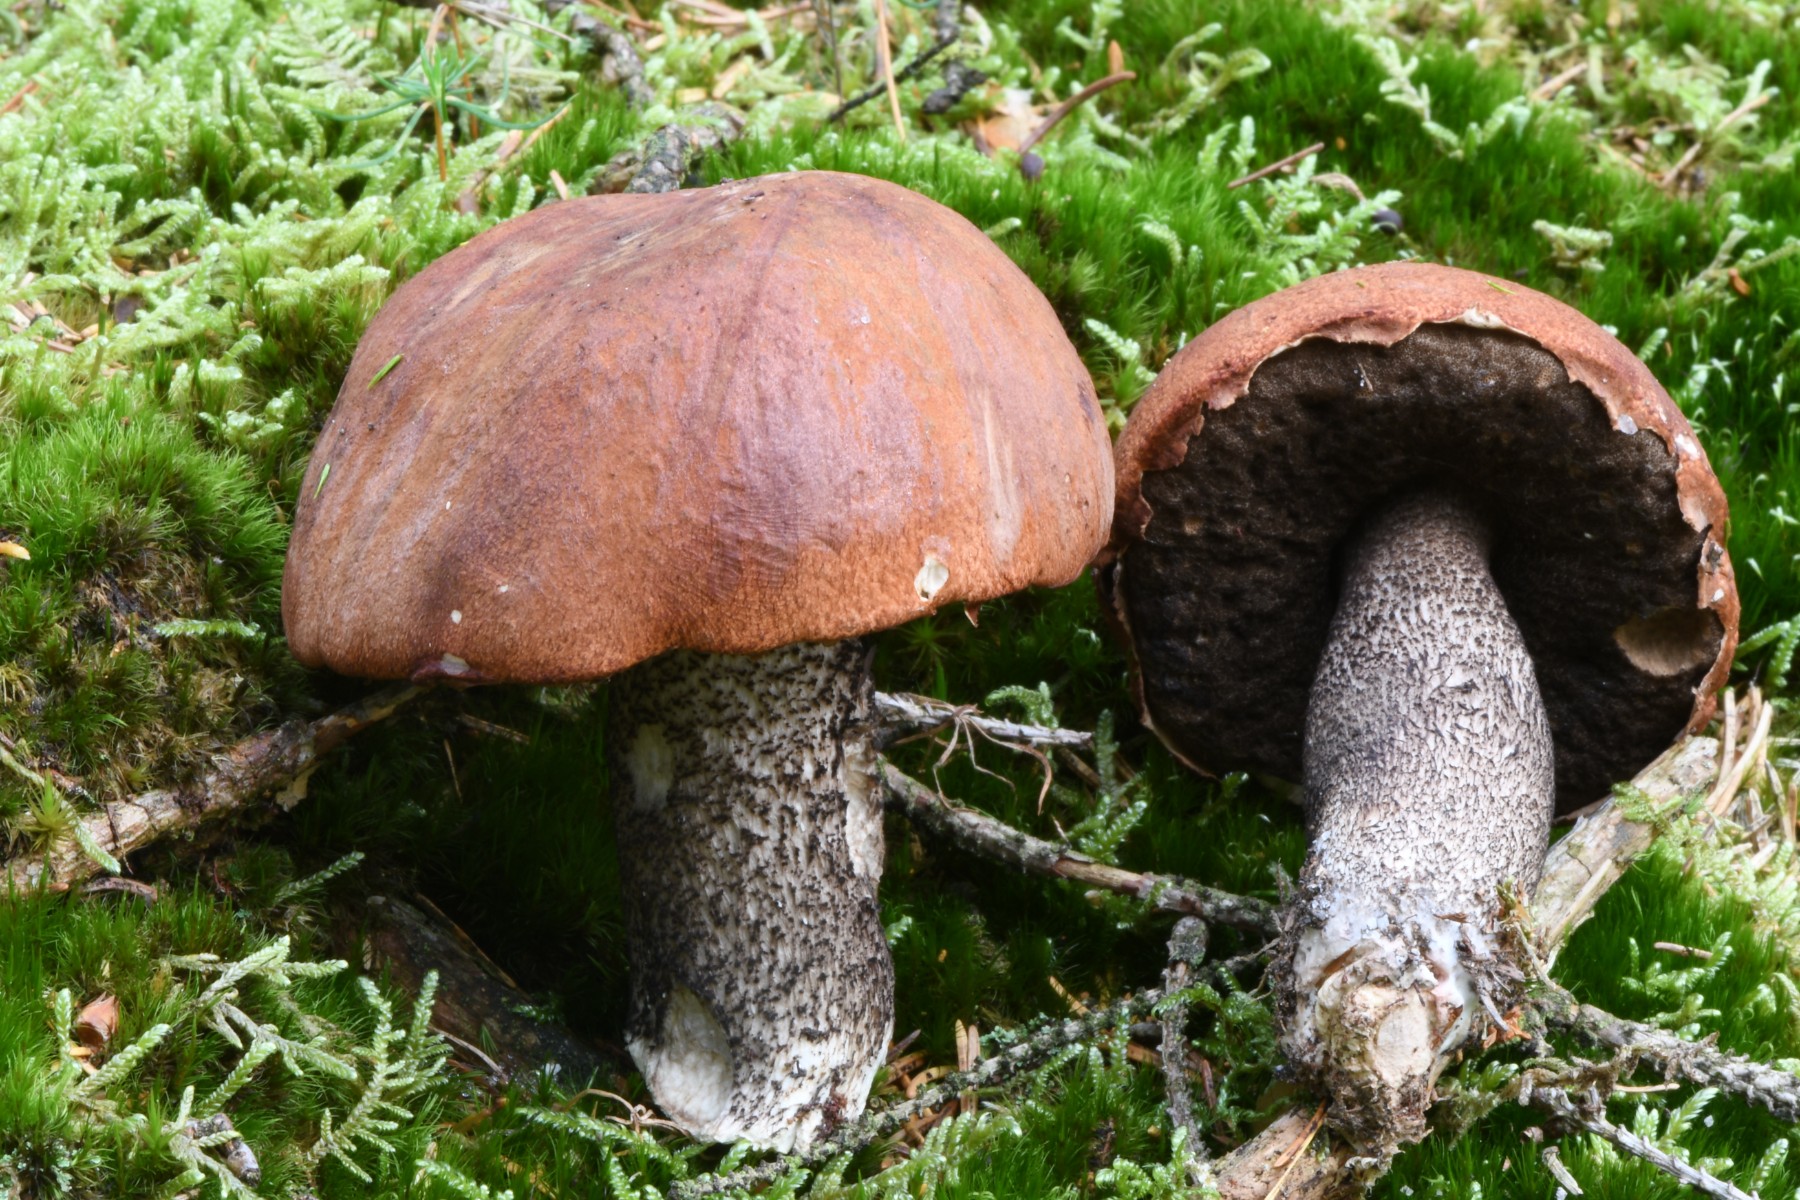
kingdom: Fungi
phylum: Basidiomycota
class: Agaricomycetes
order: Boletales
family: Boletaceae
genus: Leccinum
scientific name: Leccinum vulpinum
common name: fyrre-skælrørhat
